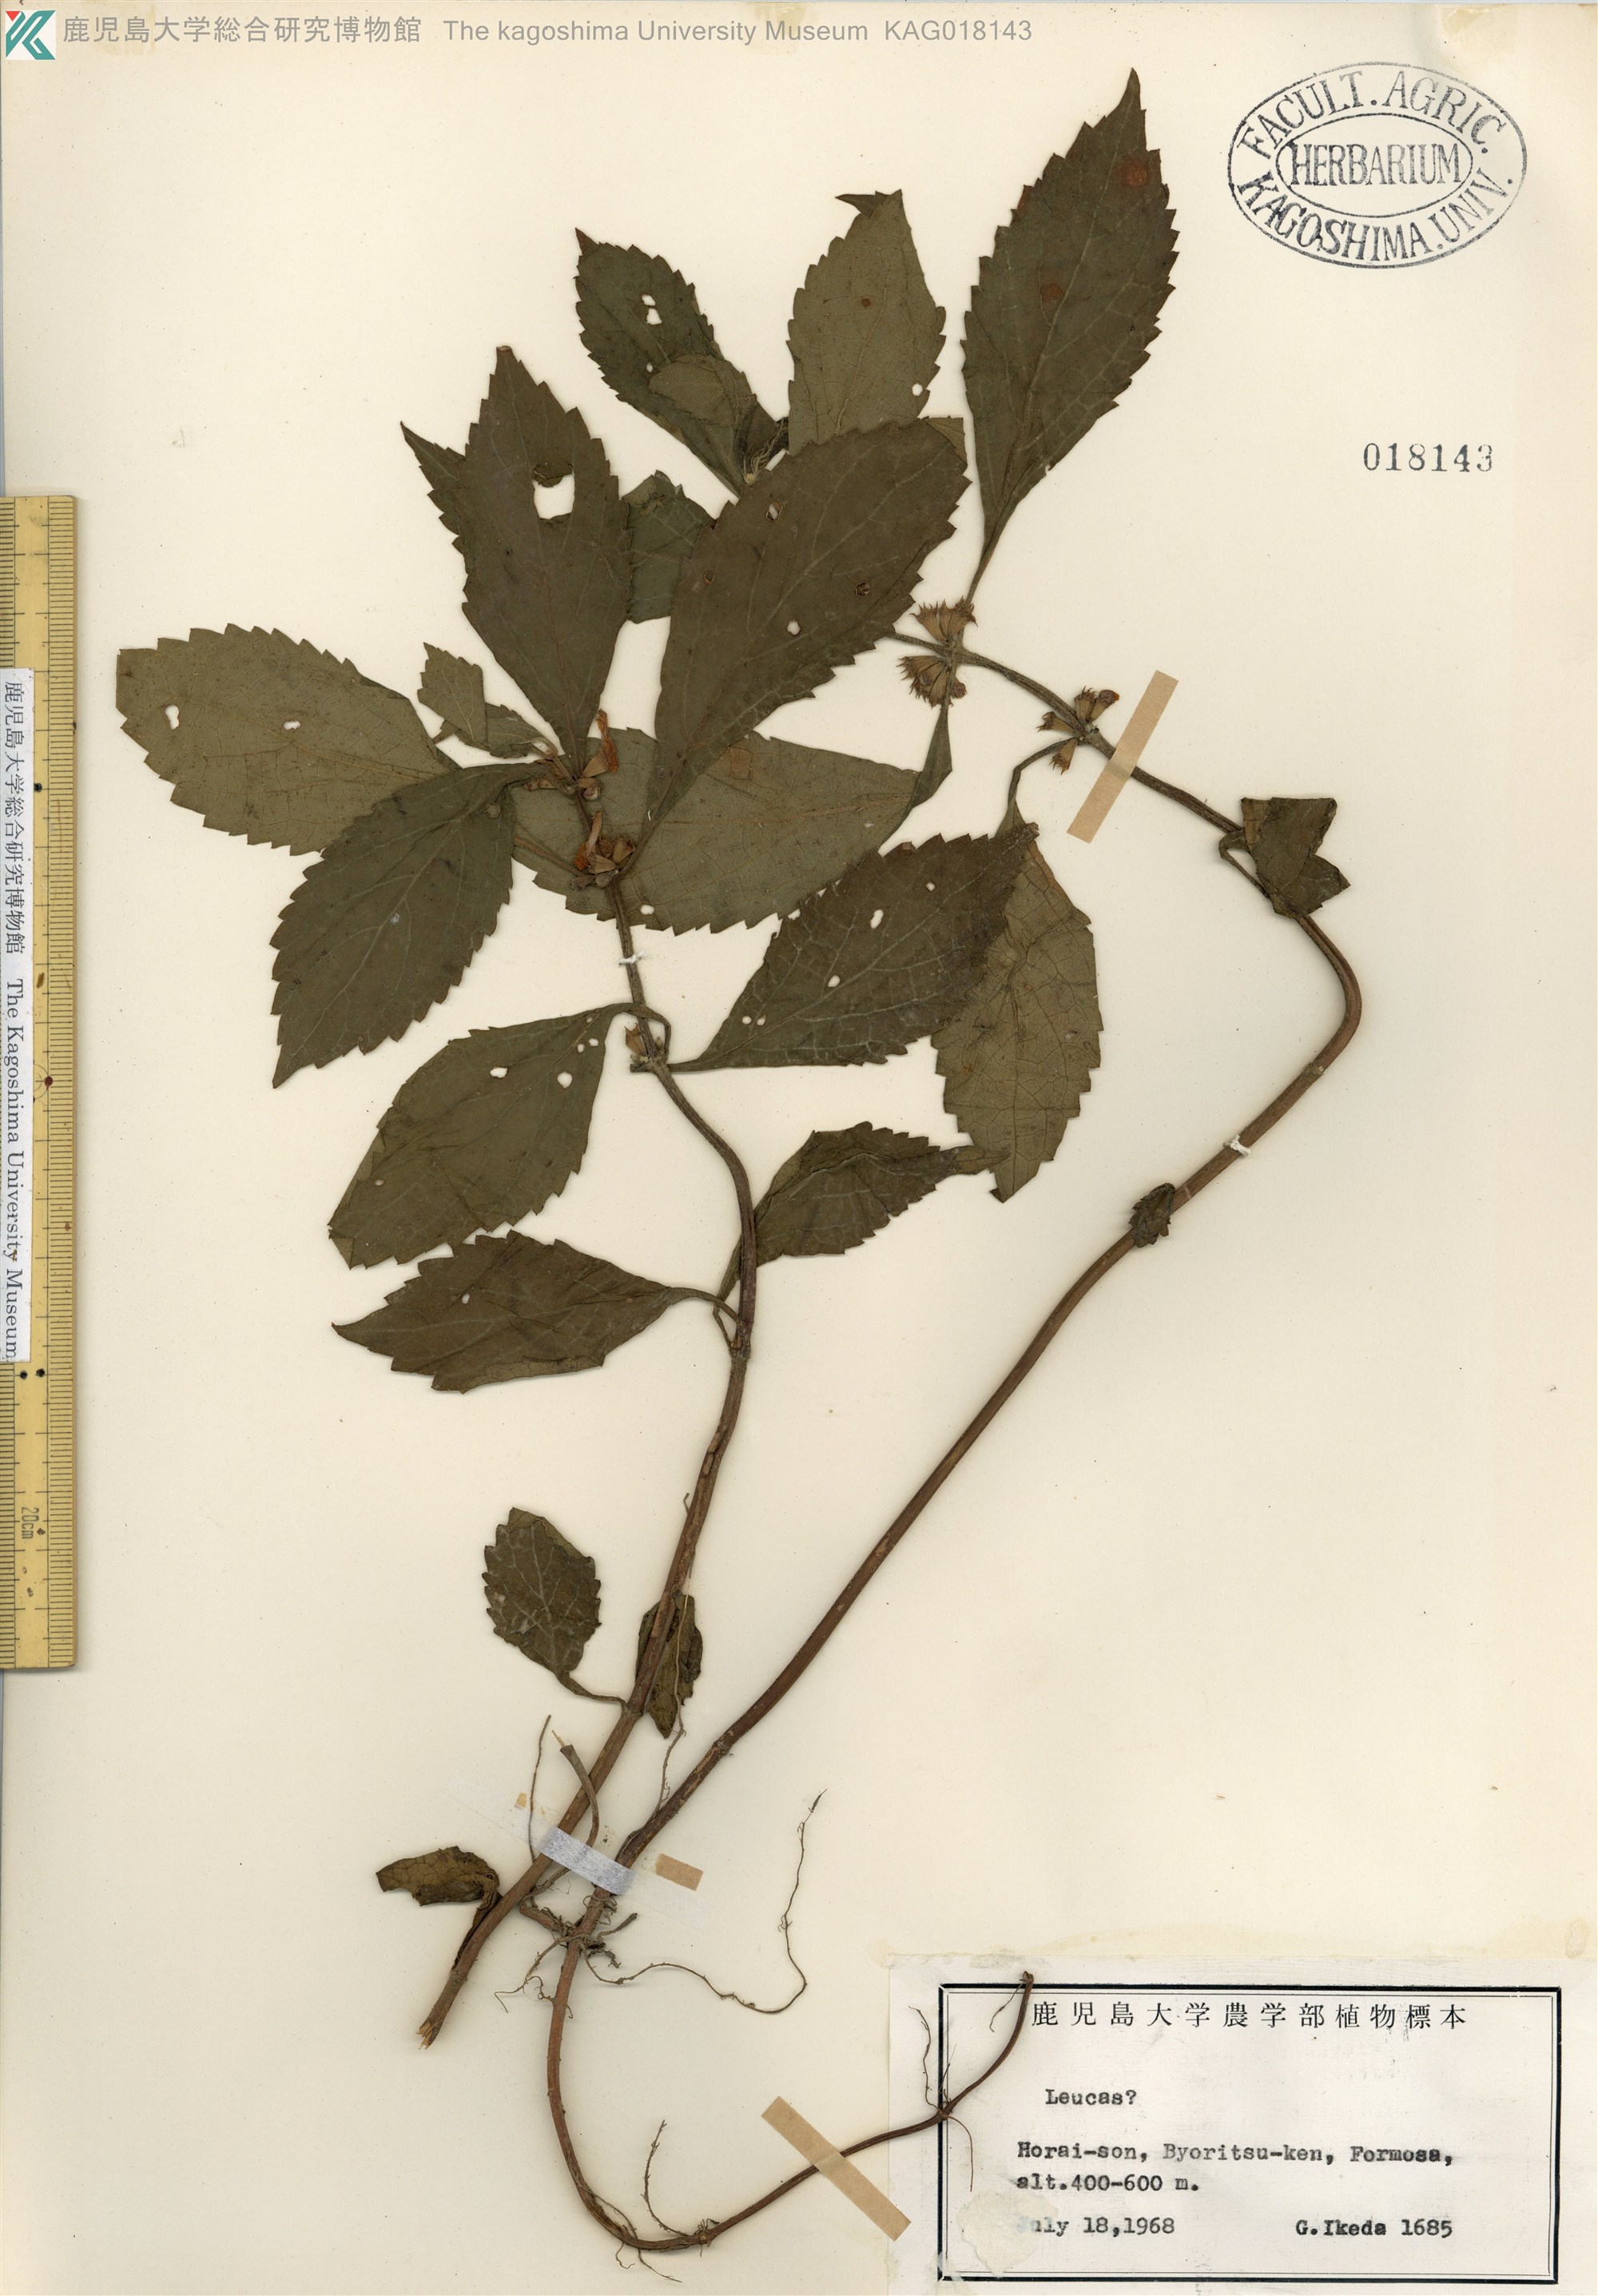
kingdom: Plantae
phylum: Tracheophyta
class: Magnoliopsida
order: Lamiales
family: Lamiaceae
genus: Leucas
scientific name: Leucas
